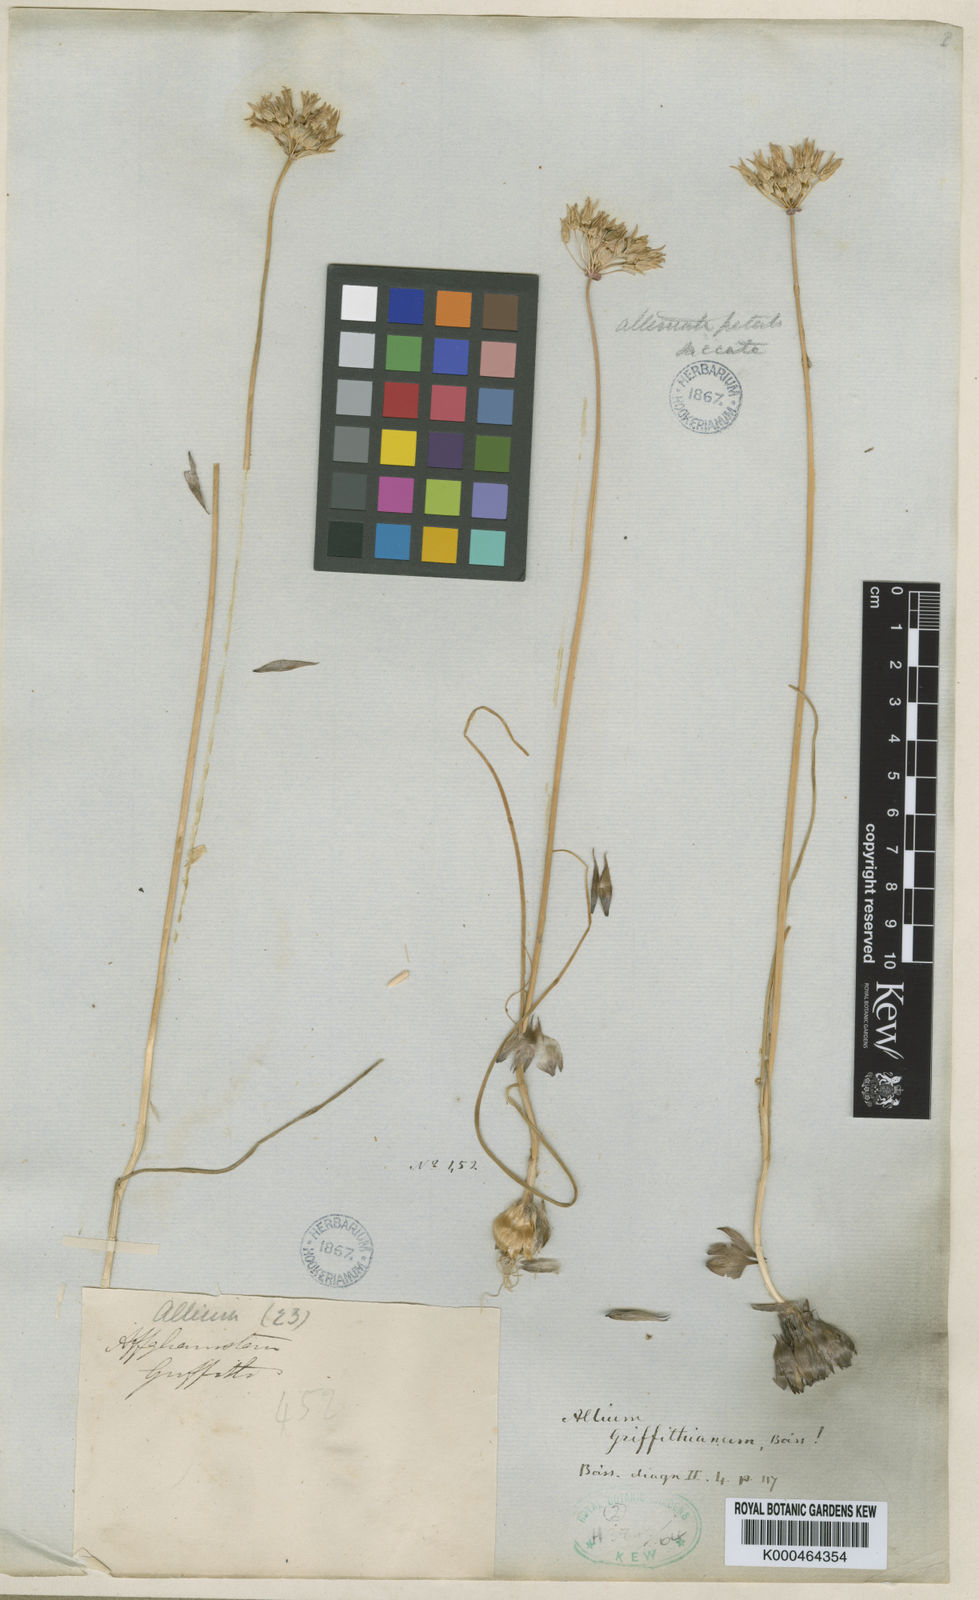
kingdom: Plantae
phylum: Tracheophyta
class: Liliopsida
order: Asparagales
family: Amaryllidaceae
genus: Allium
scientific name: Allium griffithianum
